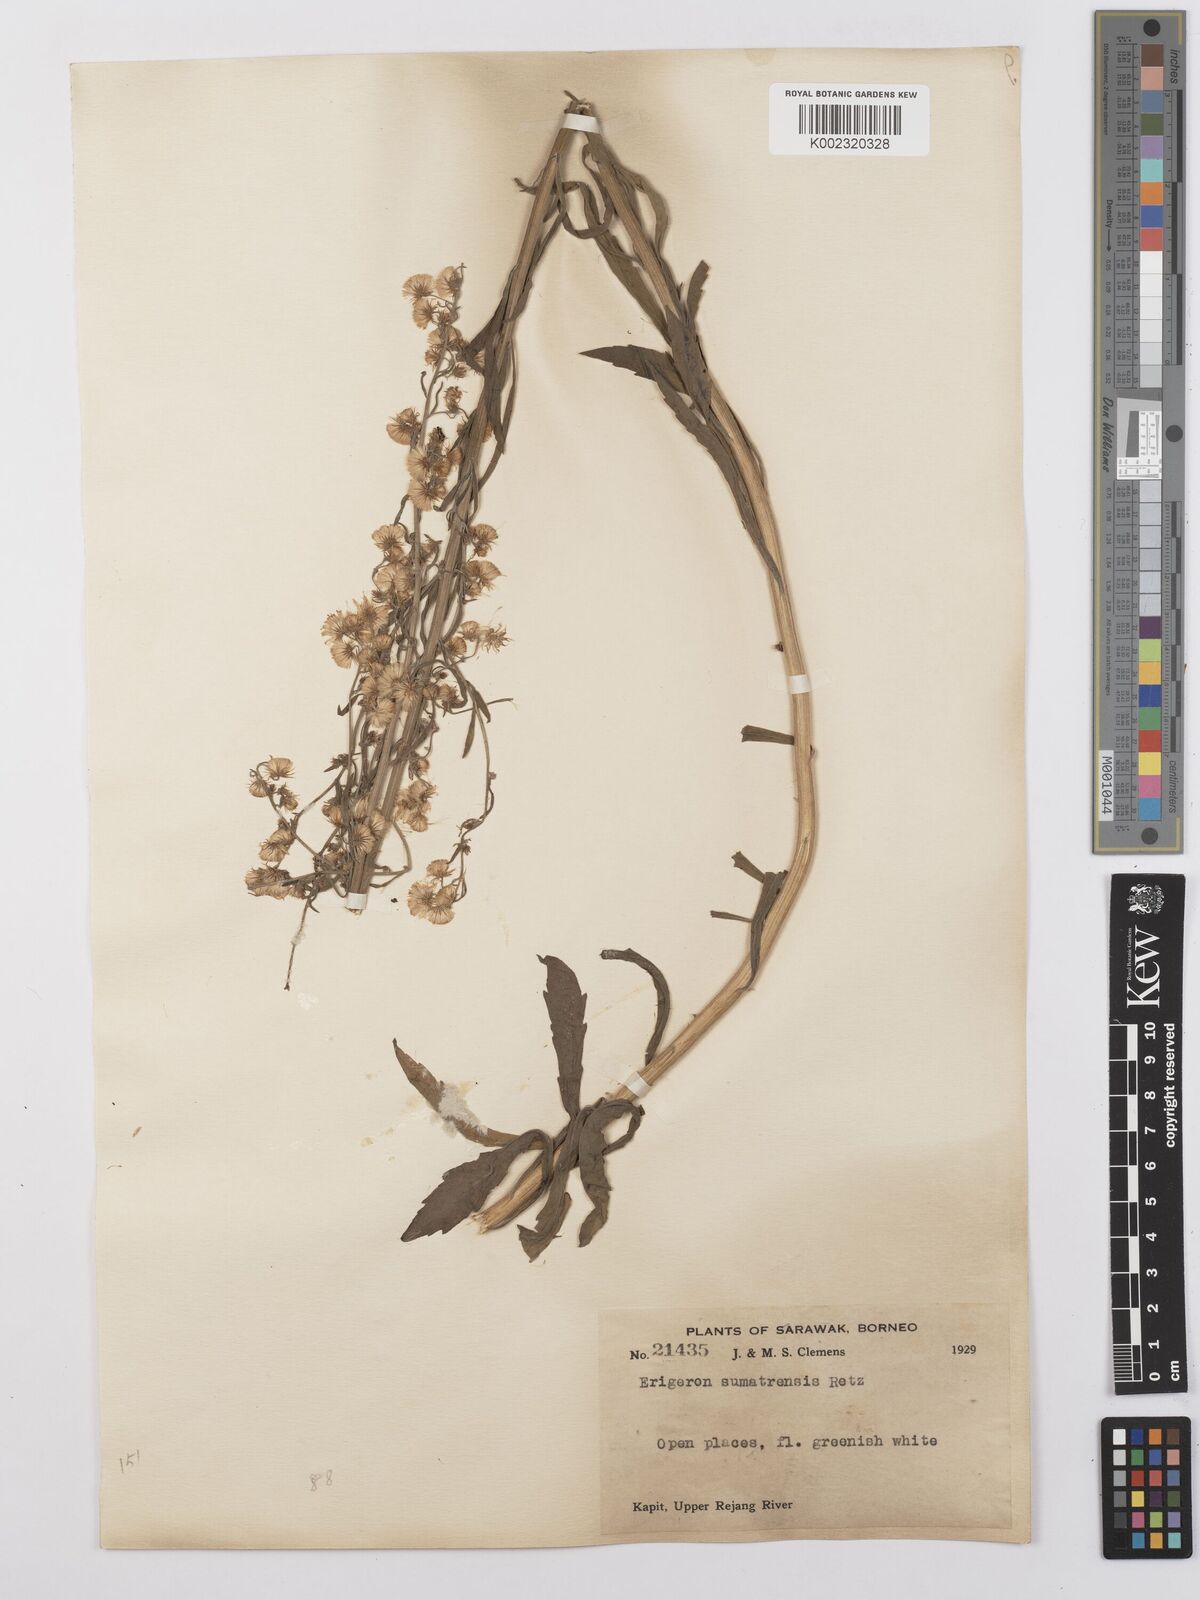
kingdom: Plantae
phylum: Tracheophyta
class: Magnoliopsida
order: Asterales
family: Asteraceae
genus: Erigeron
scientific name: Erigeron sumatrensis
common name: Daisy
